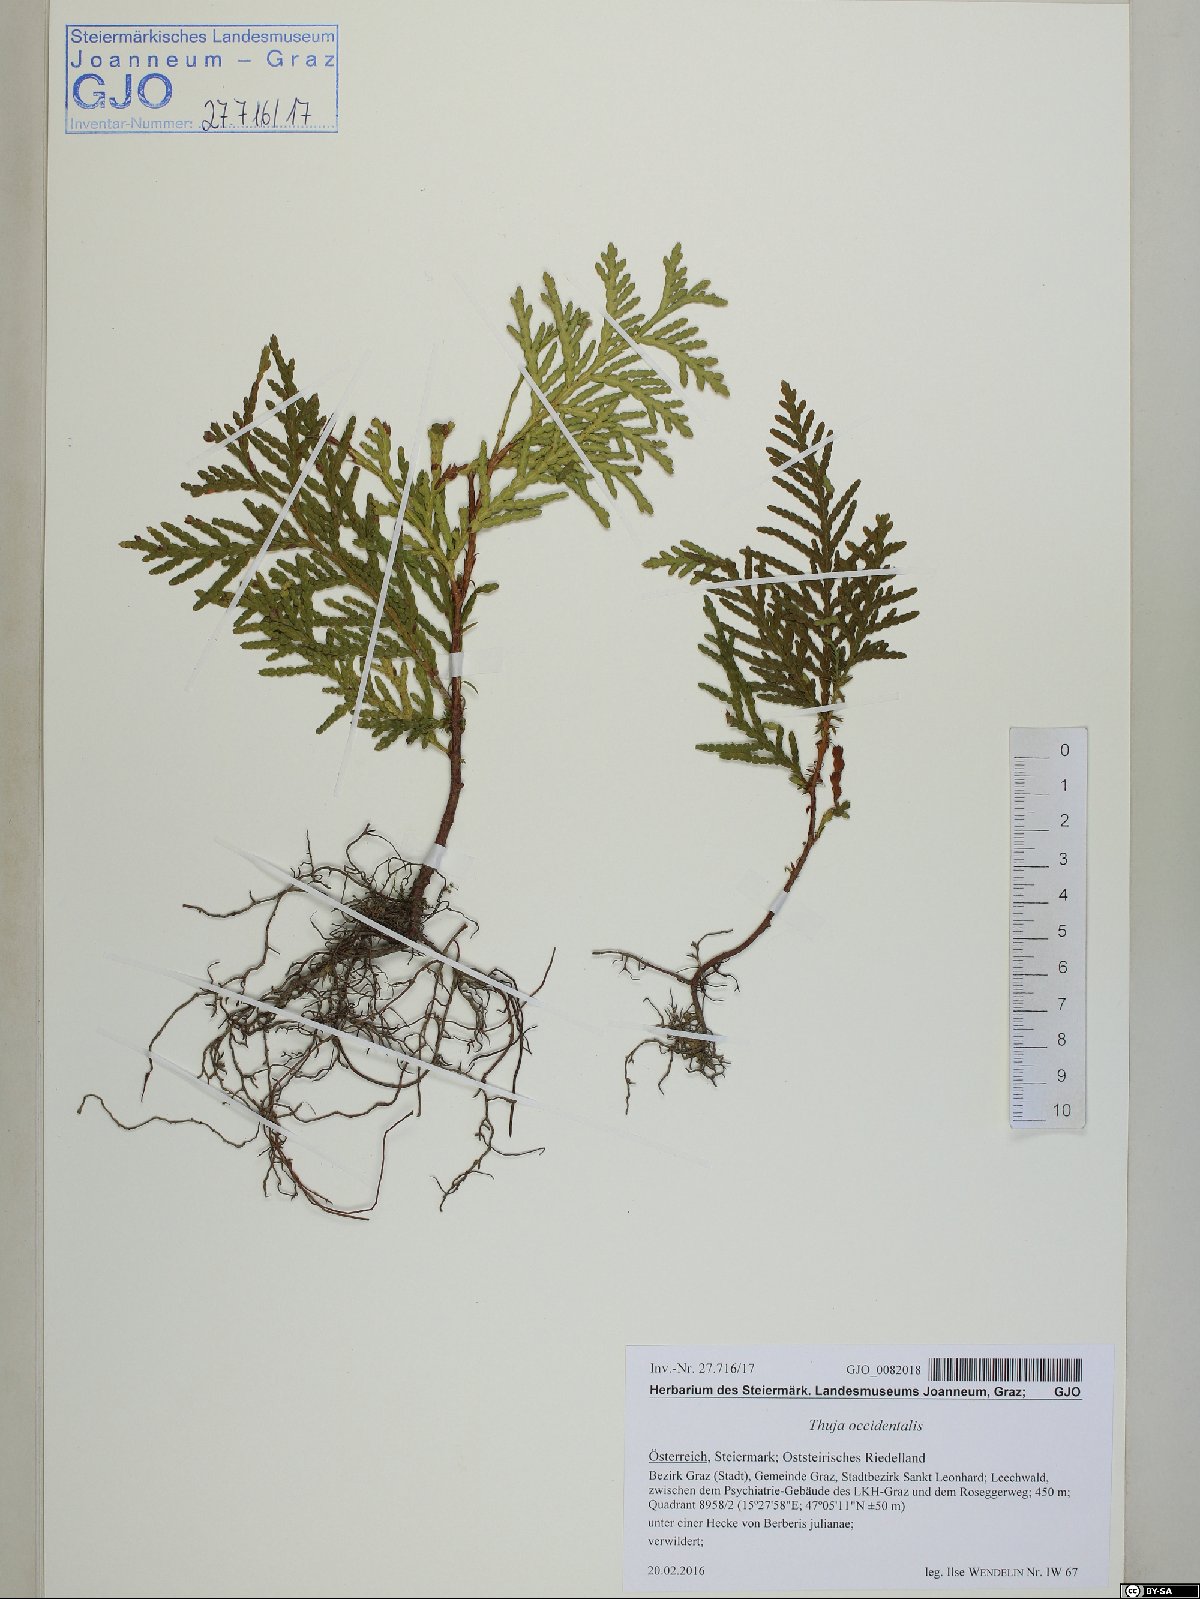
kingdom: Plantae
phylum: Tracheophyta
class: Pinopsida
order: Pinales
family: Cupressaceae
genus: Thuja
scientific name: Thuja occidentalis
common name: Northern white-cedar
